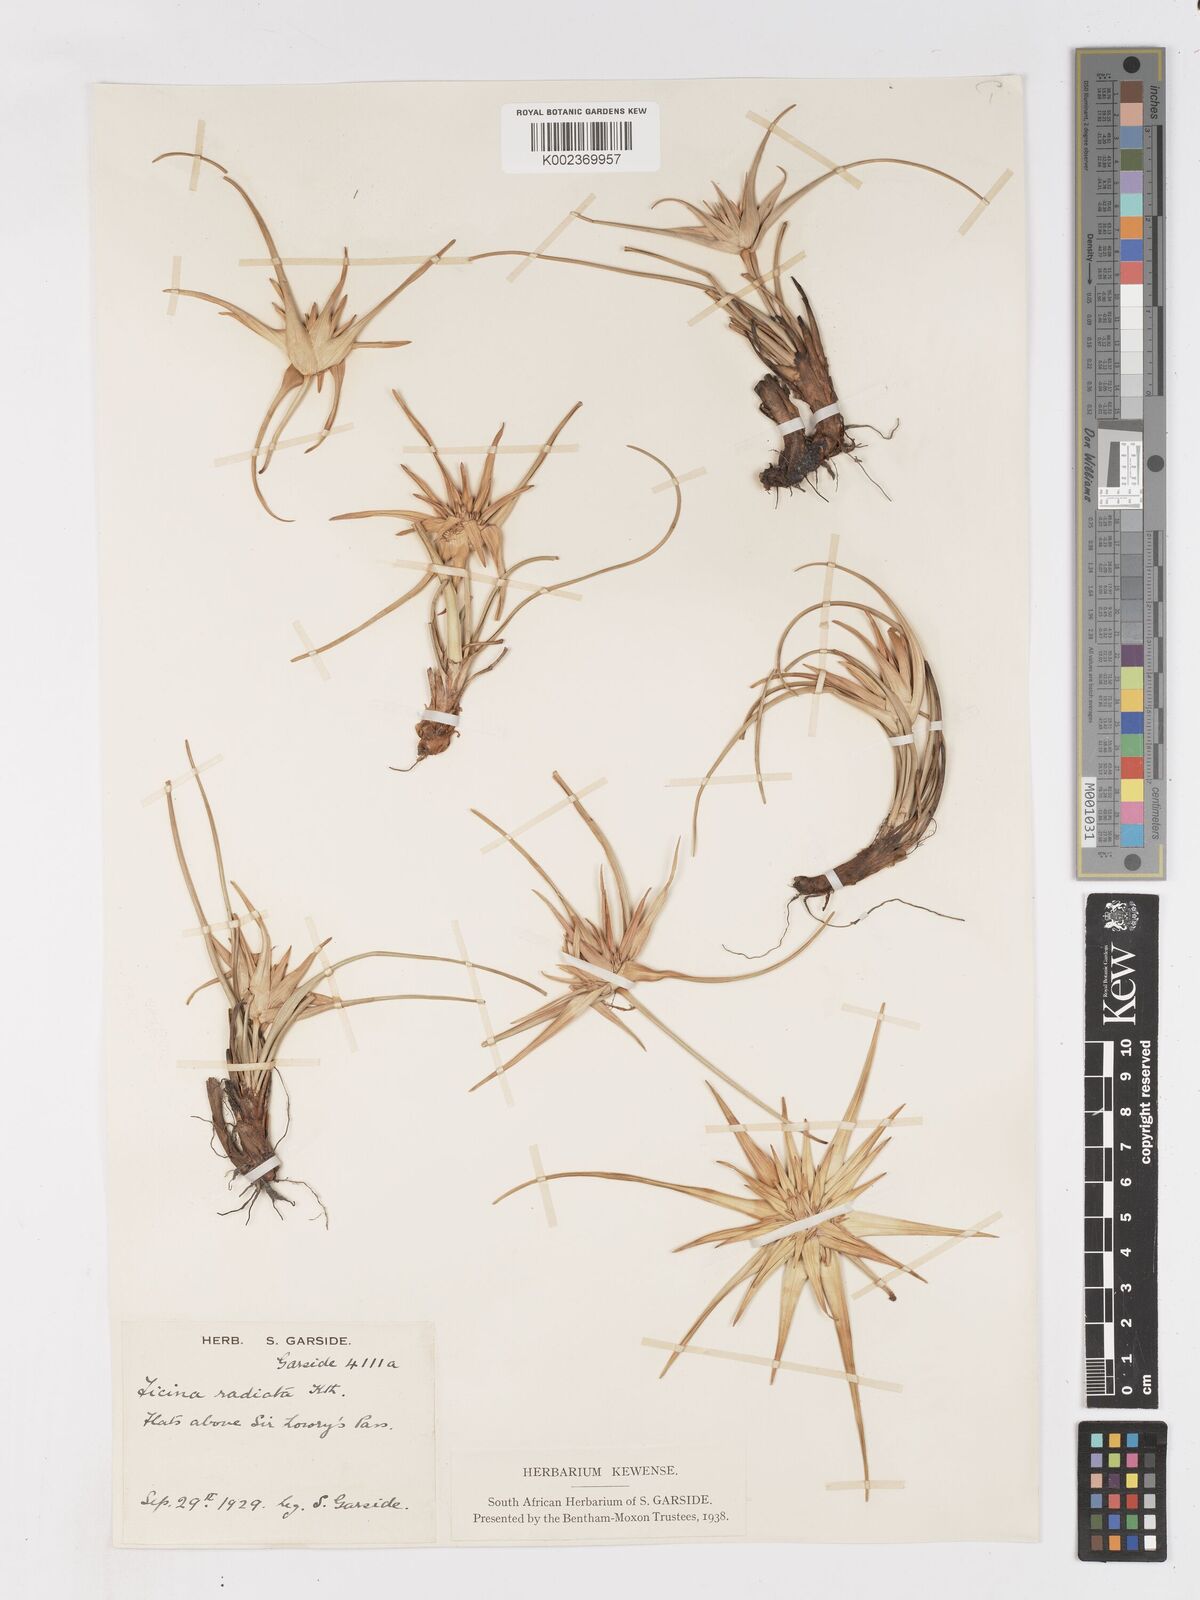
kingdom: Plantae
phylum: Tracheophyta
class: Liliopsida
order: Poales
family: Cyperaceae
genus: Ficinia
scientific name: Ficinia radiata
